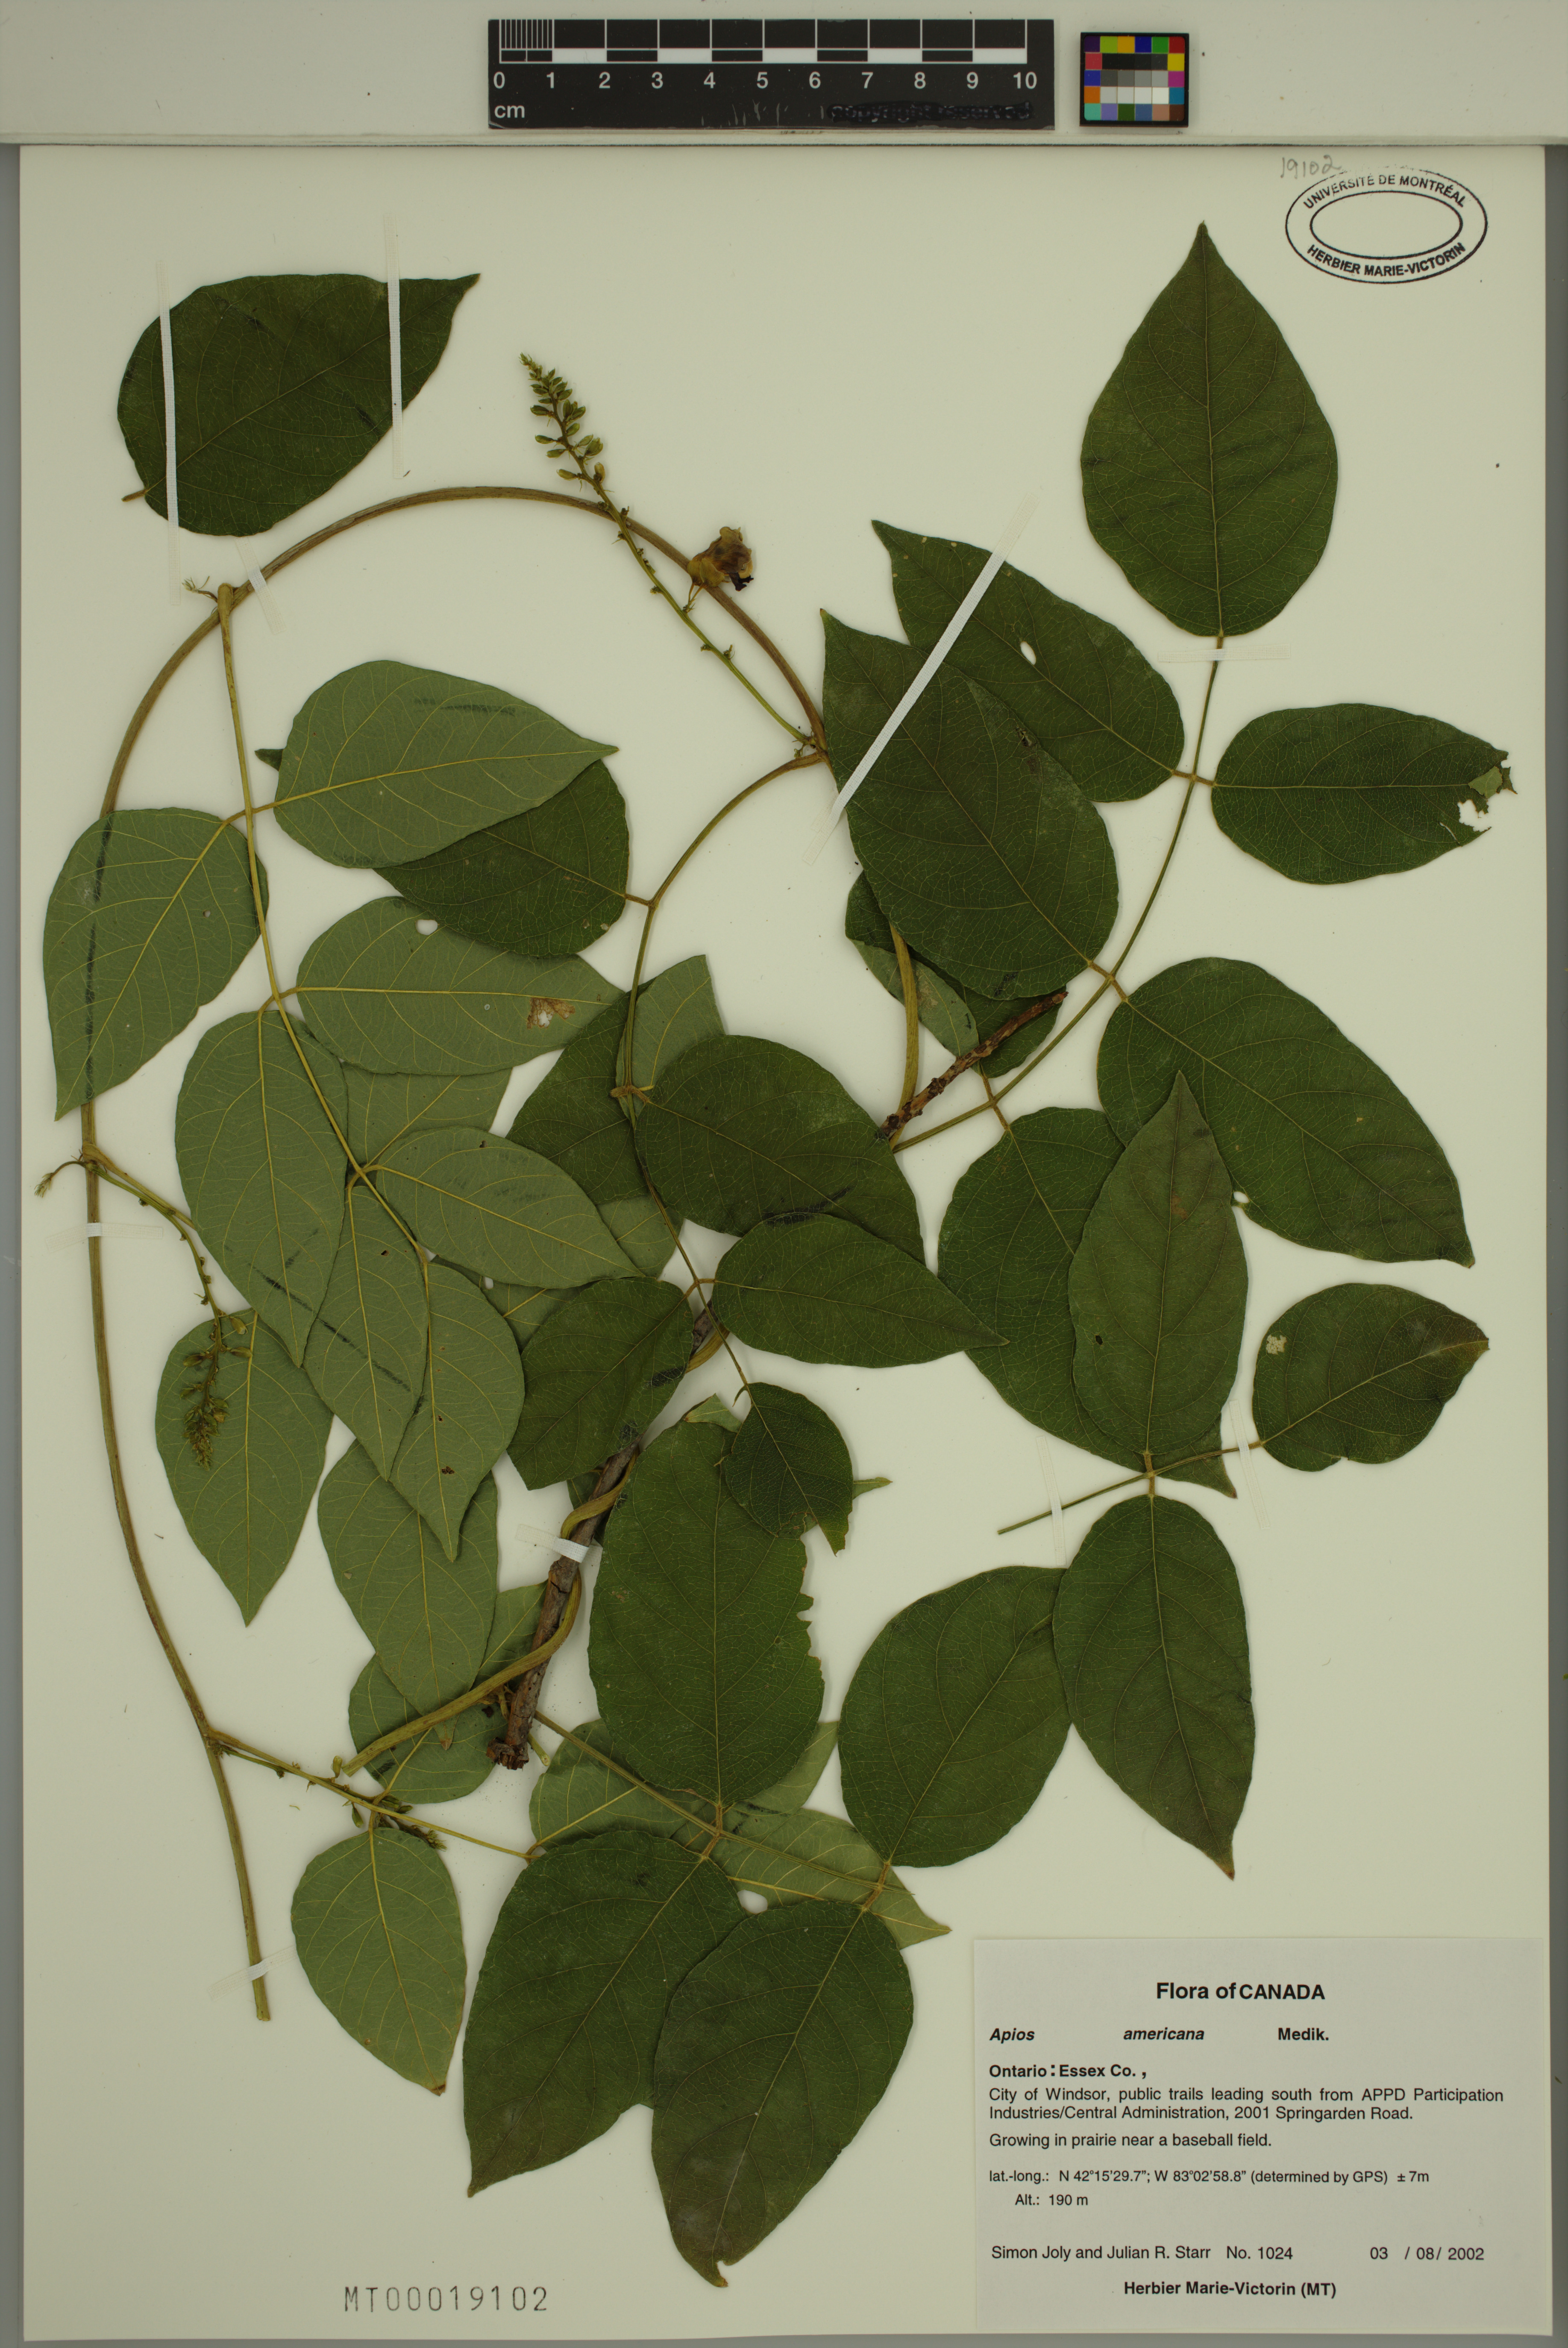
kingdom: Plantae
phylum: Tracheophyta
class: Magnoliopsida
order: Fabales
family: Fabaceae
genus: Apios
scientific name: Apios americana
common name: American potato-bean
